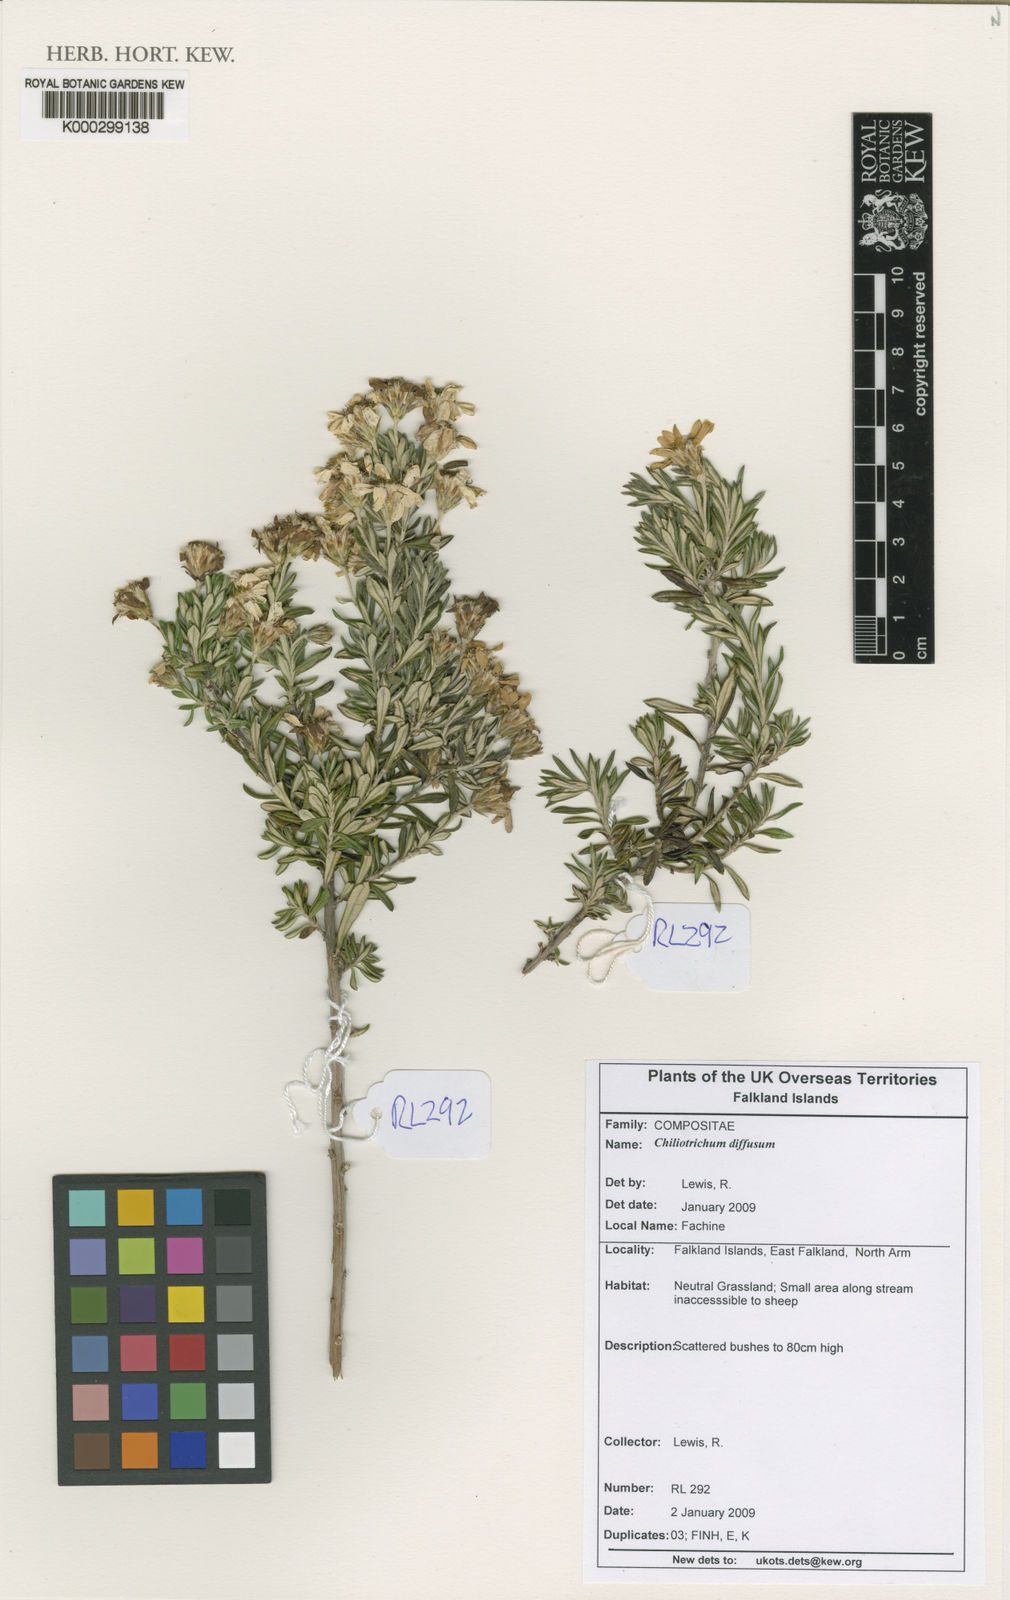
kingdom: Plantae
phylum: Tracheophyta
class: Magnoliopsida
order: Asterales
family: Asteraceae
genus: Chiliotrichum
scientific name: Chiliotrichum diffusum
